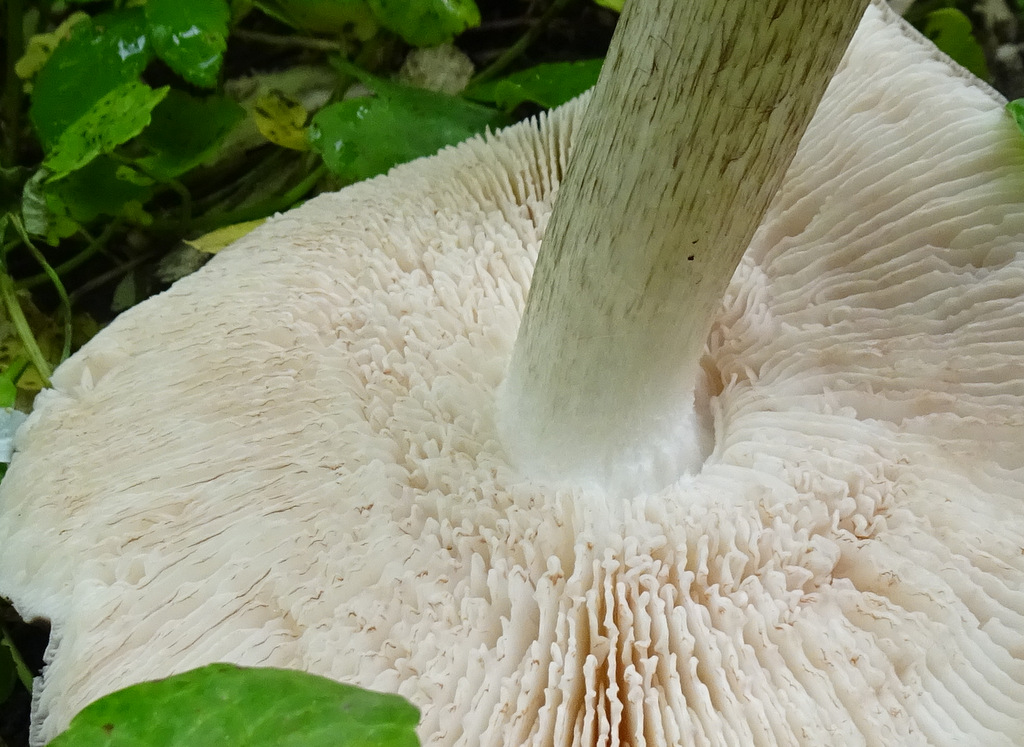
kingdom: Fungi
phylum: Basidiomycota
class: Agaricomycetes
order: Agaricales
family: Pluteaceae
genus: Pluteus
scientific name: Pluteus cervinus
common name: sodfarvet skærmhat
